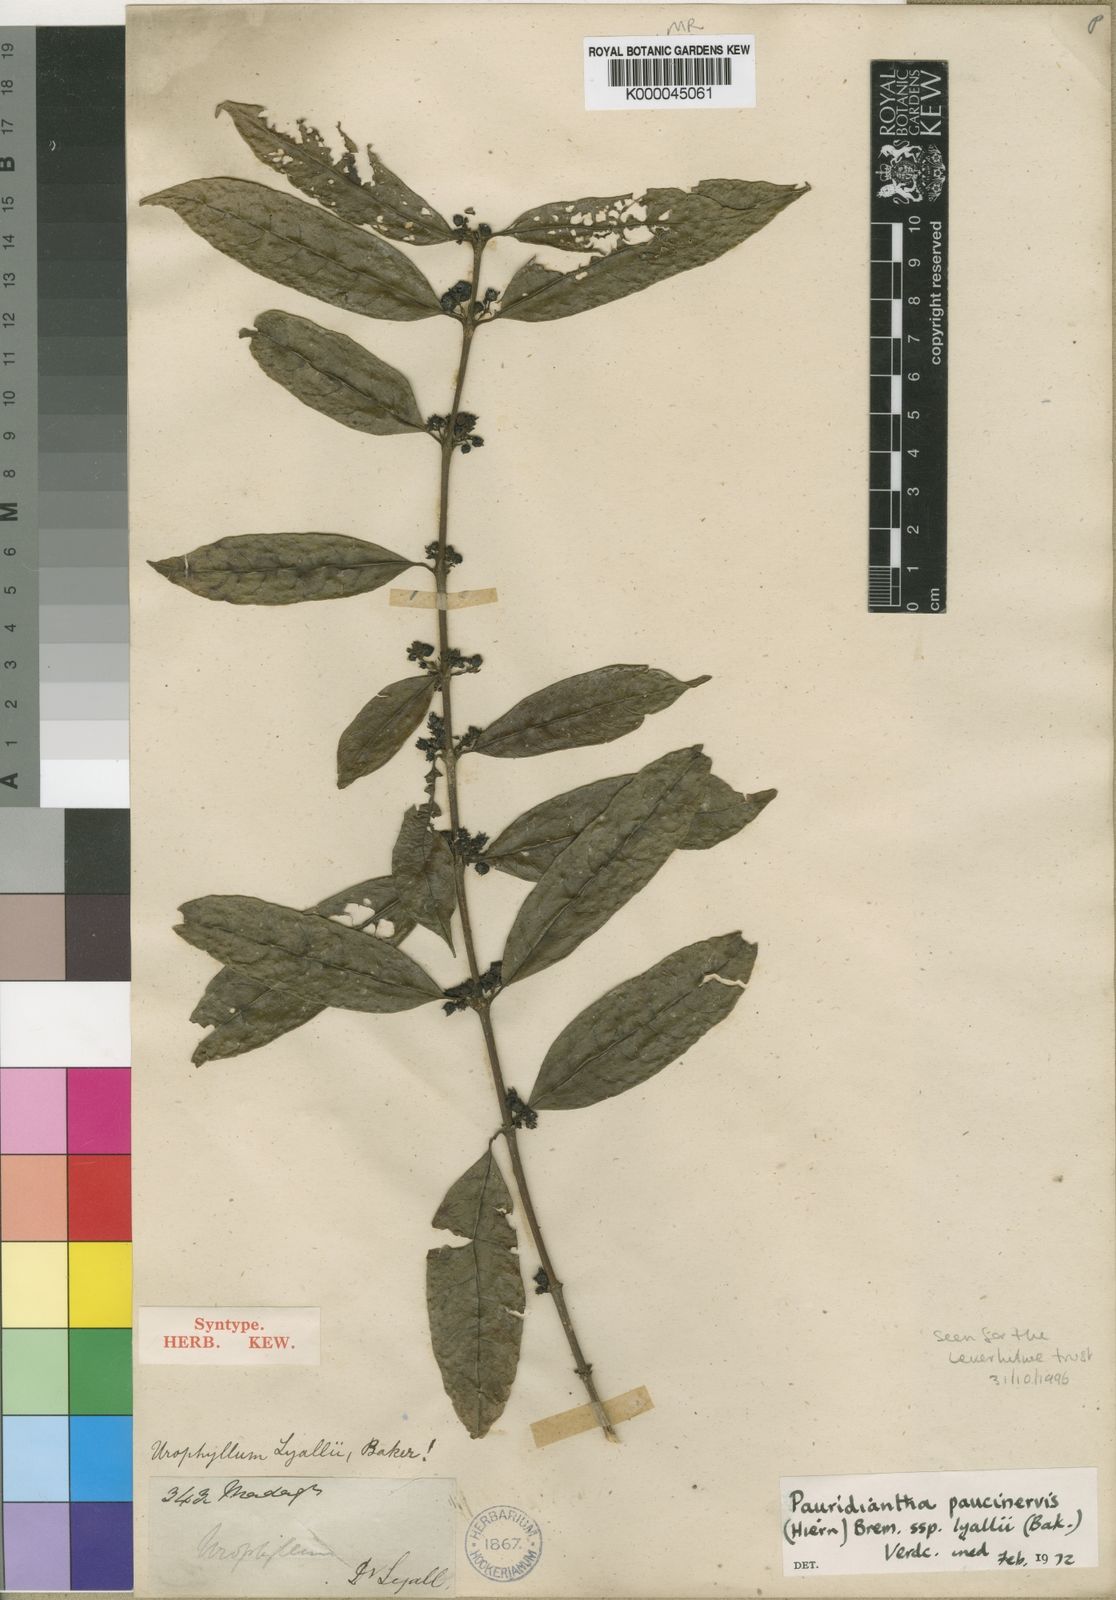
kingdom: Plantae
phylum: Tracheophyta
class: Magnoliopsida
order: Gentianales
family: Rubiaceae
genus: Pauridiantha
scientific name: Pauridiantha paucinervis
